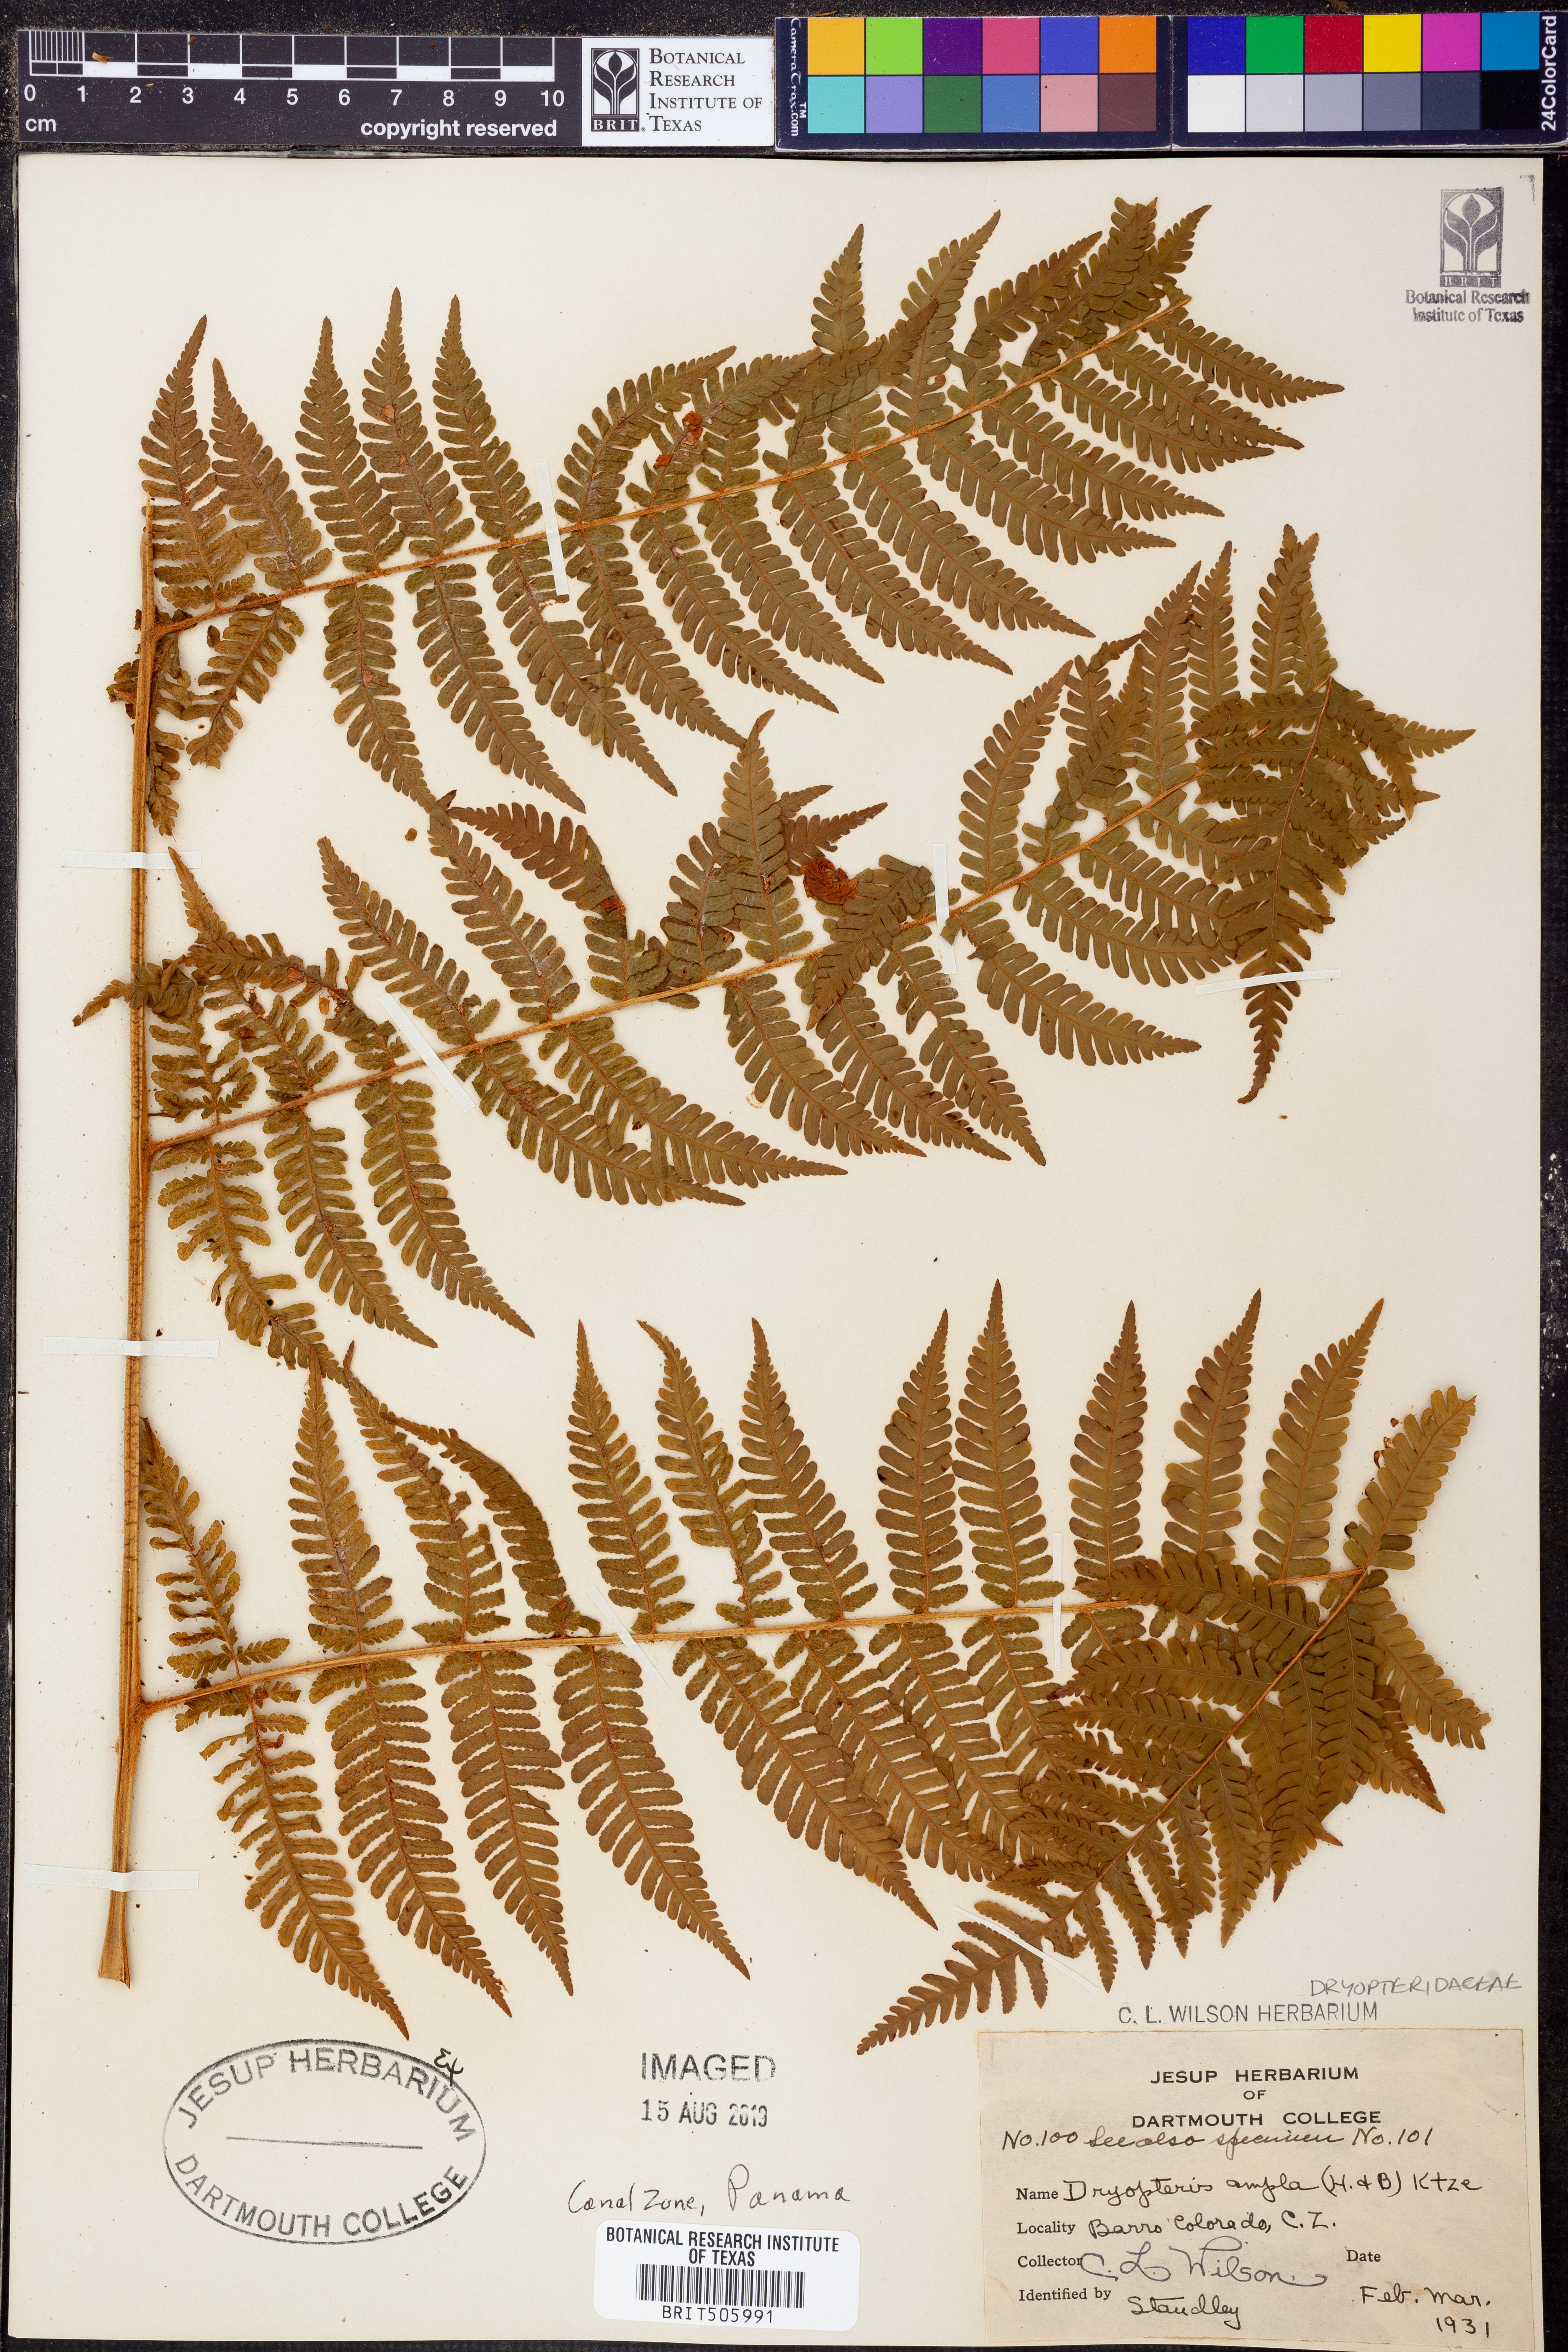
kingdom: Plantae
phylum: Tracheophyta
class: Polypodiopsida
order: Polypodiales
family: Dryopteridaceae
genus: Ctenitis
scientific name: Ctenitis sloanei
